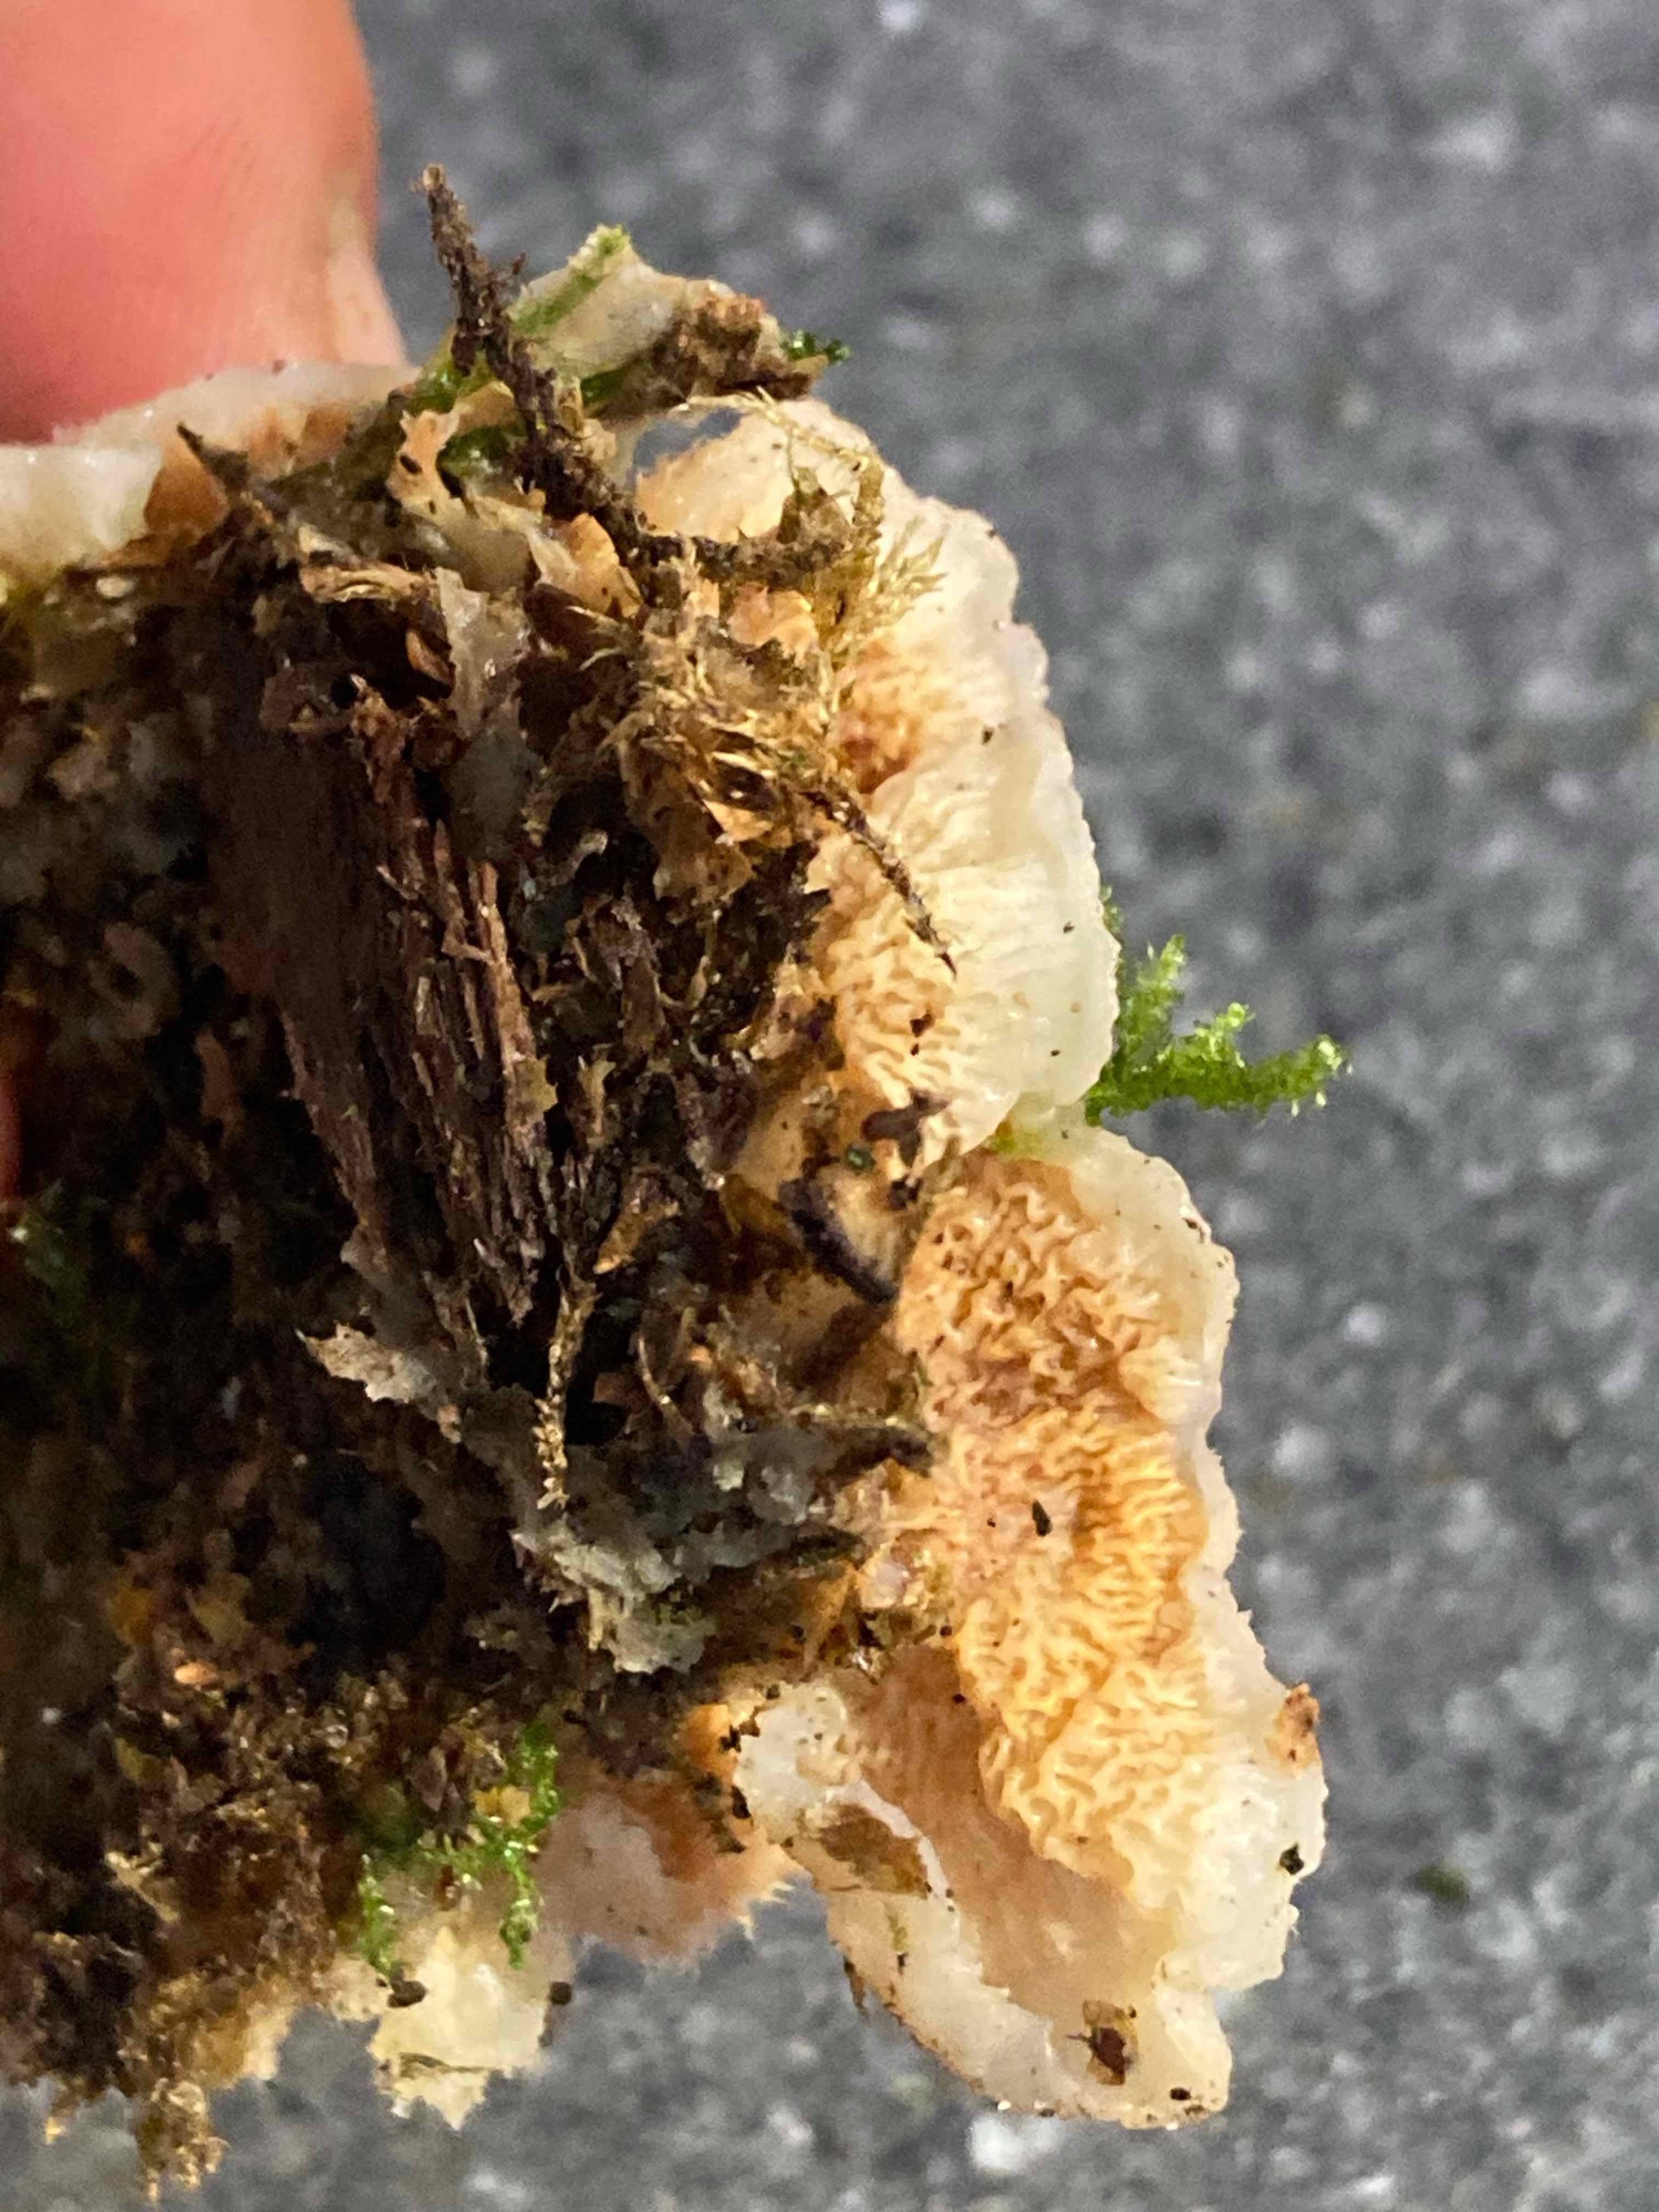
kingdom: Fungi
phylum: Basidiomycota
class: Agaricomycetes
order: Polyporales
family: Meruliaceae
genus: Phlebia
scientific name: Phlebia tremellosa
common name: bævrende åresvamp
